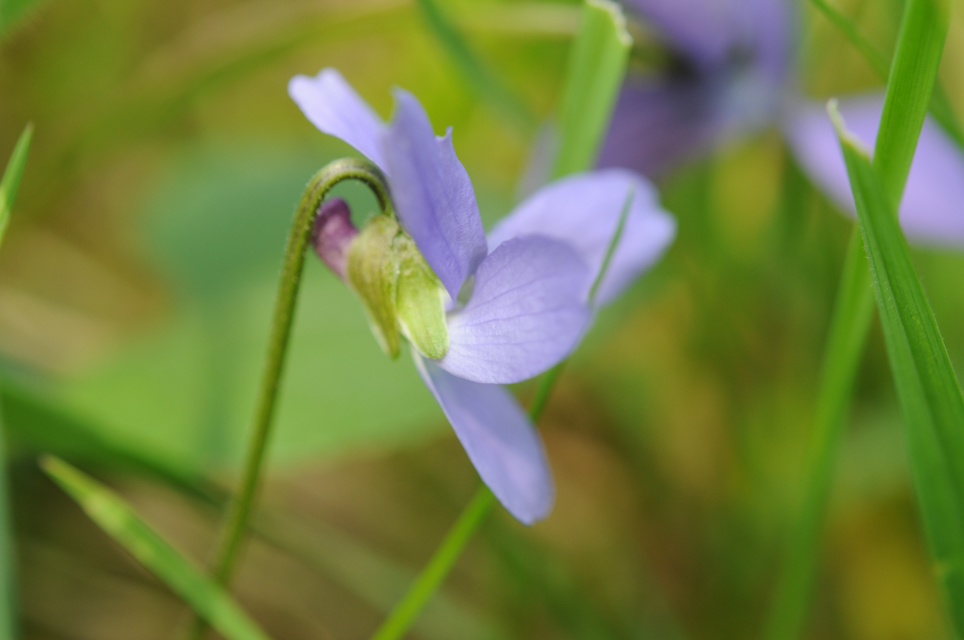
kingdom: Plantae
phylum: Tracheophyta
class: Magnoliopsida
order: Malpighiales
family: Violaceae
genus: Viola
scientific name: Viola hirta
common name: Hairy violet
